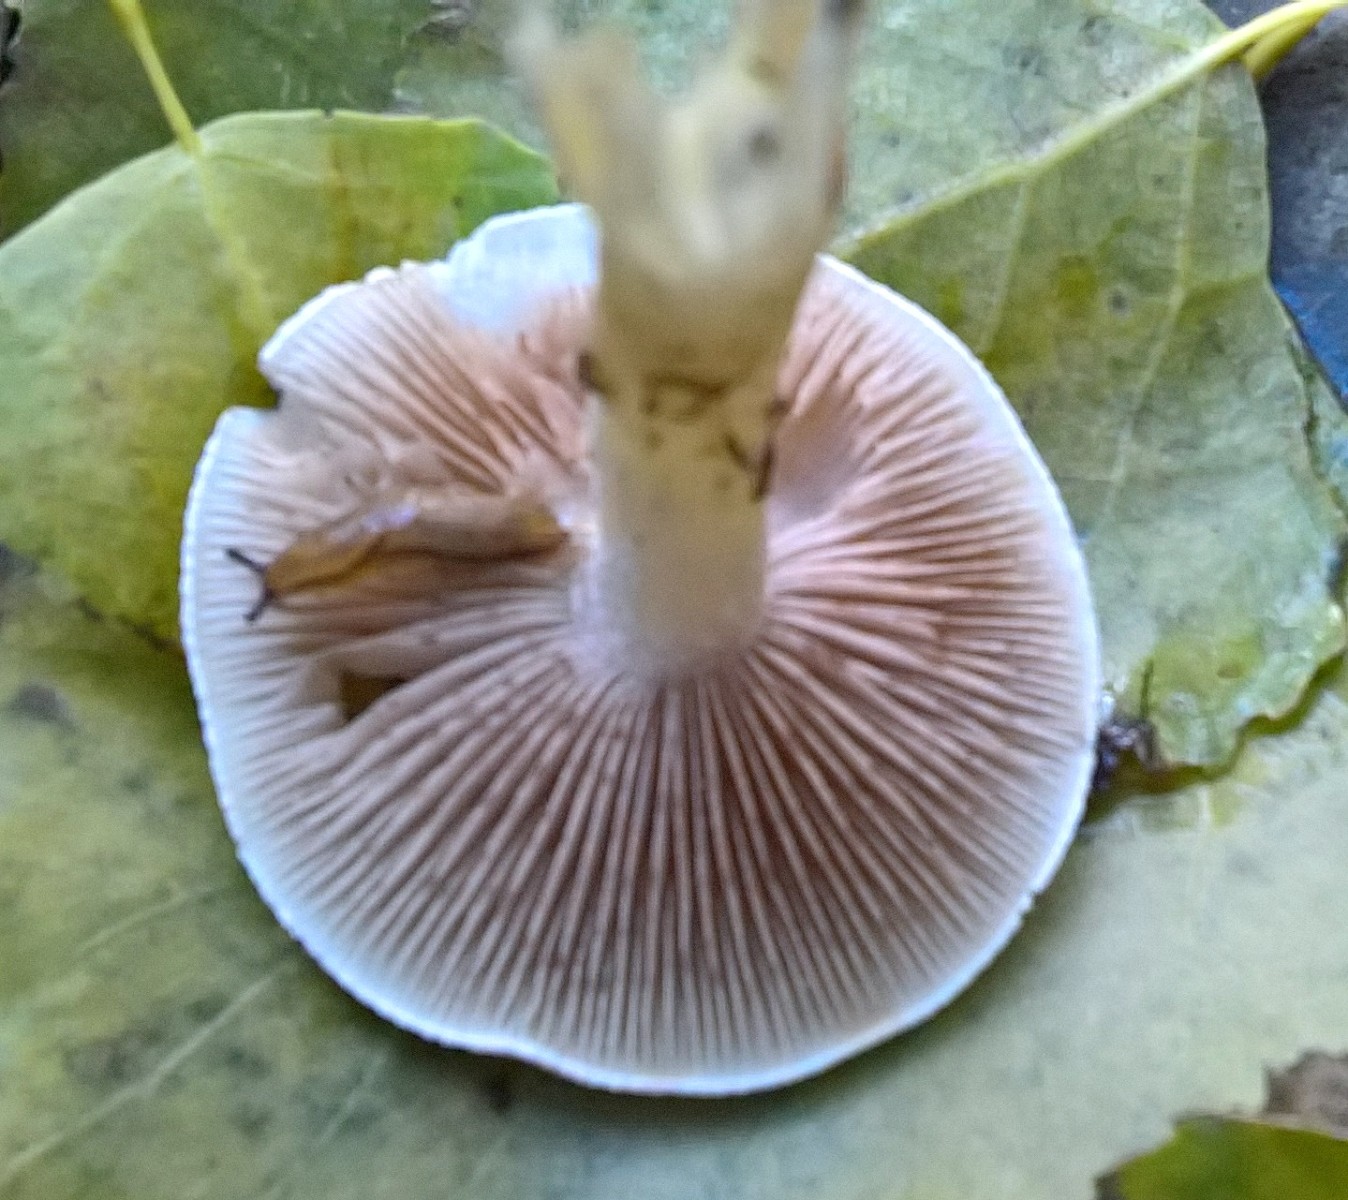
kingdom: Fungi
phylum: Basidiomycota
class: Agaricomycetes
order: Agaricales
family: Hymenogastraceae
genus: Hebeloma
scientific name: Hebeloma
